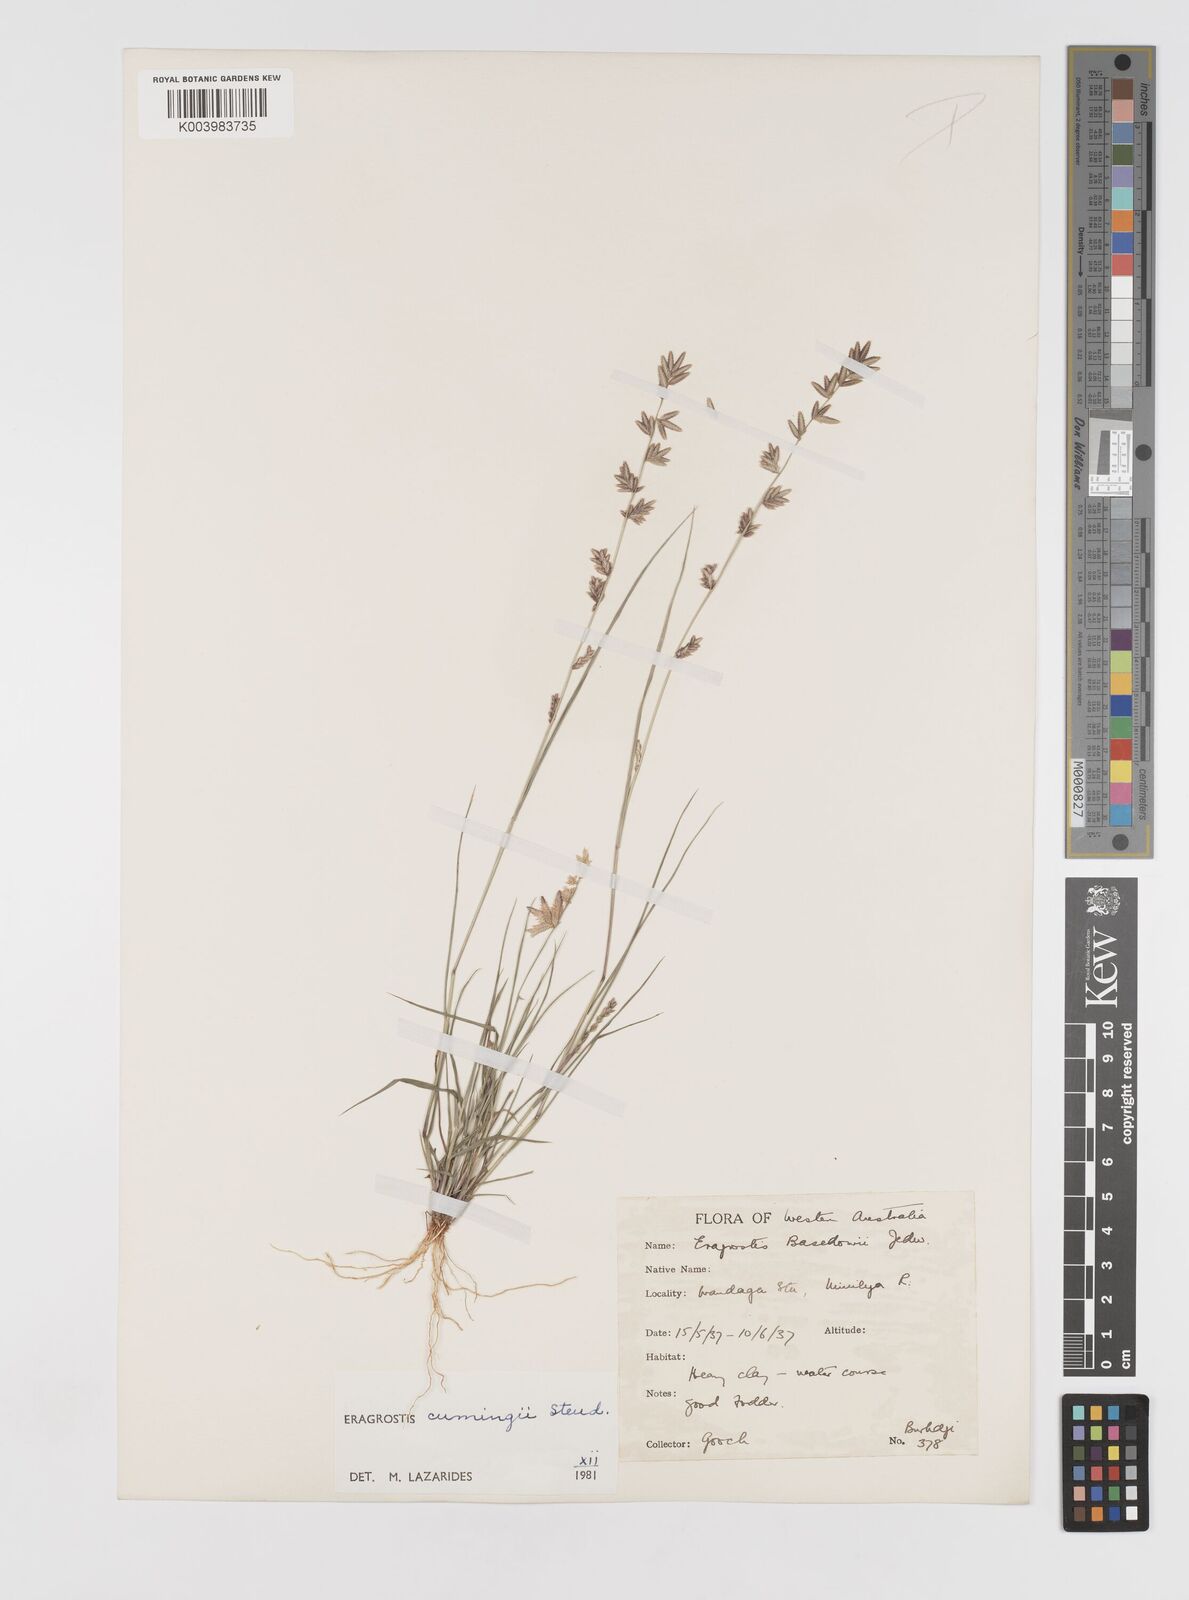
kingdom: Plantae
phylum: Tracheophyta
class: Liliopsida
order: Poales
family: Poaceae
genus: Eragrostis
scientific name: Eragrostis cumingii
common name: Cuming's lovegrass
